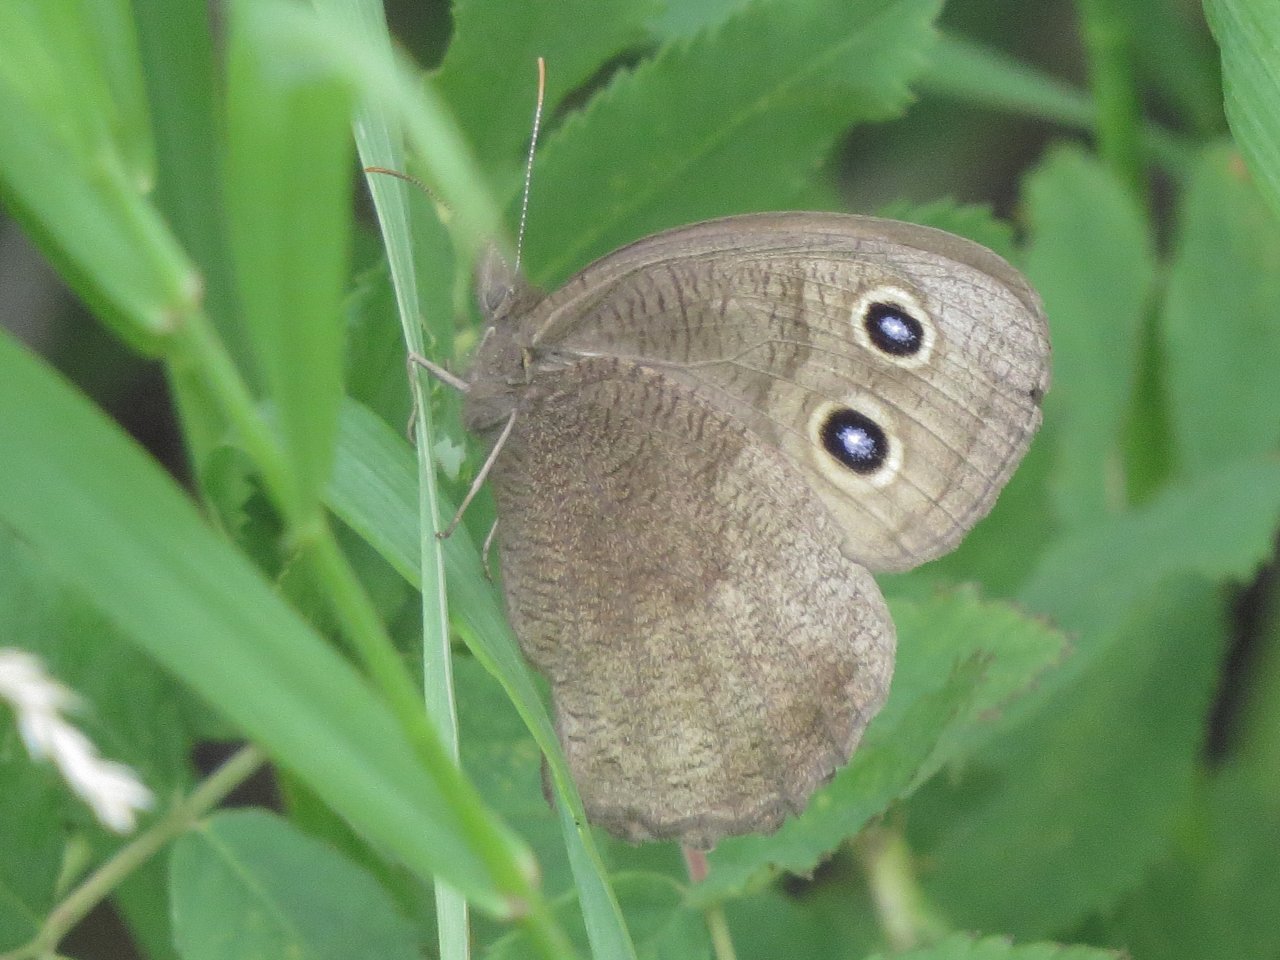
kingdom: Animalia
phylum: Arthropoda
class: Insecta
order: Lepidoptera
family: Nymphalidae
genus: Cercyonis
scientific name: Cercyonis pegala
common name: Common Wood-Nymph
